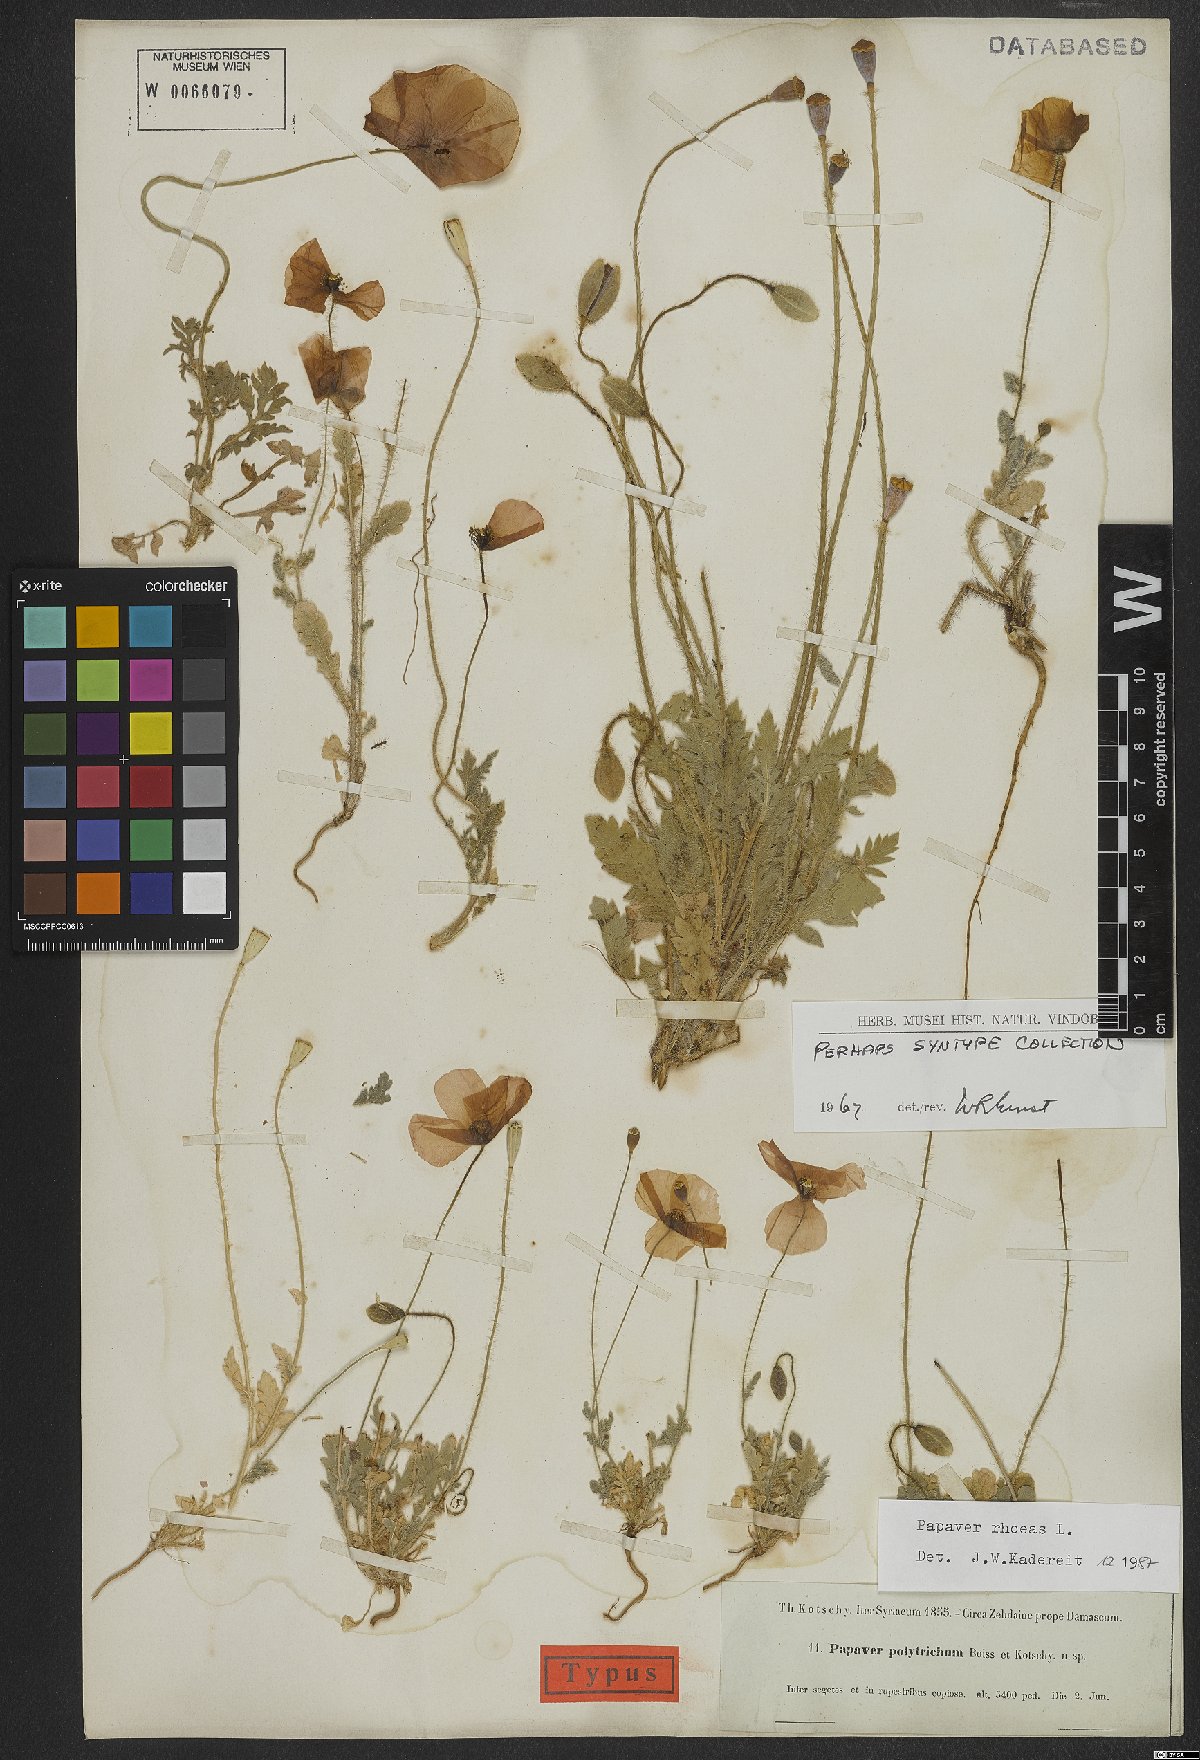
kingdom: Plantae
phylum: Tracheophyta
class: Magnoliopsida
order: Ranunculales
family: Papaveraceae
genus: Papaver
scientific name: Papaver rhoeas
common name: Corn poppy
